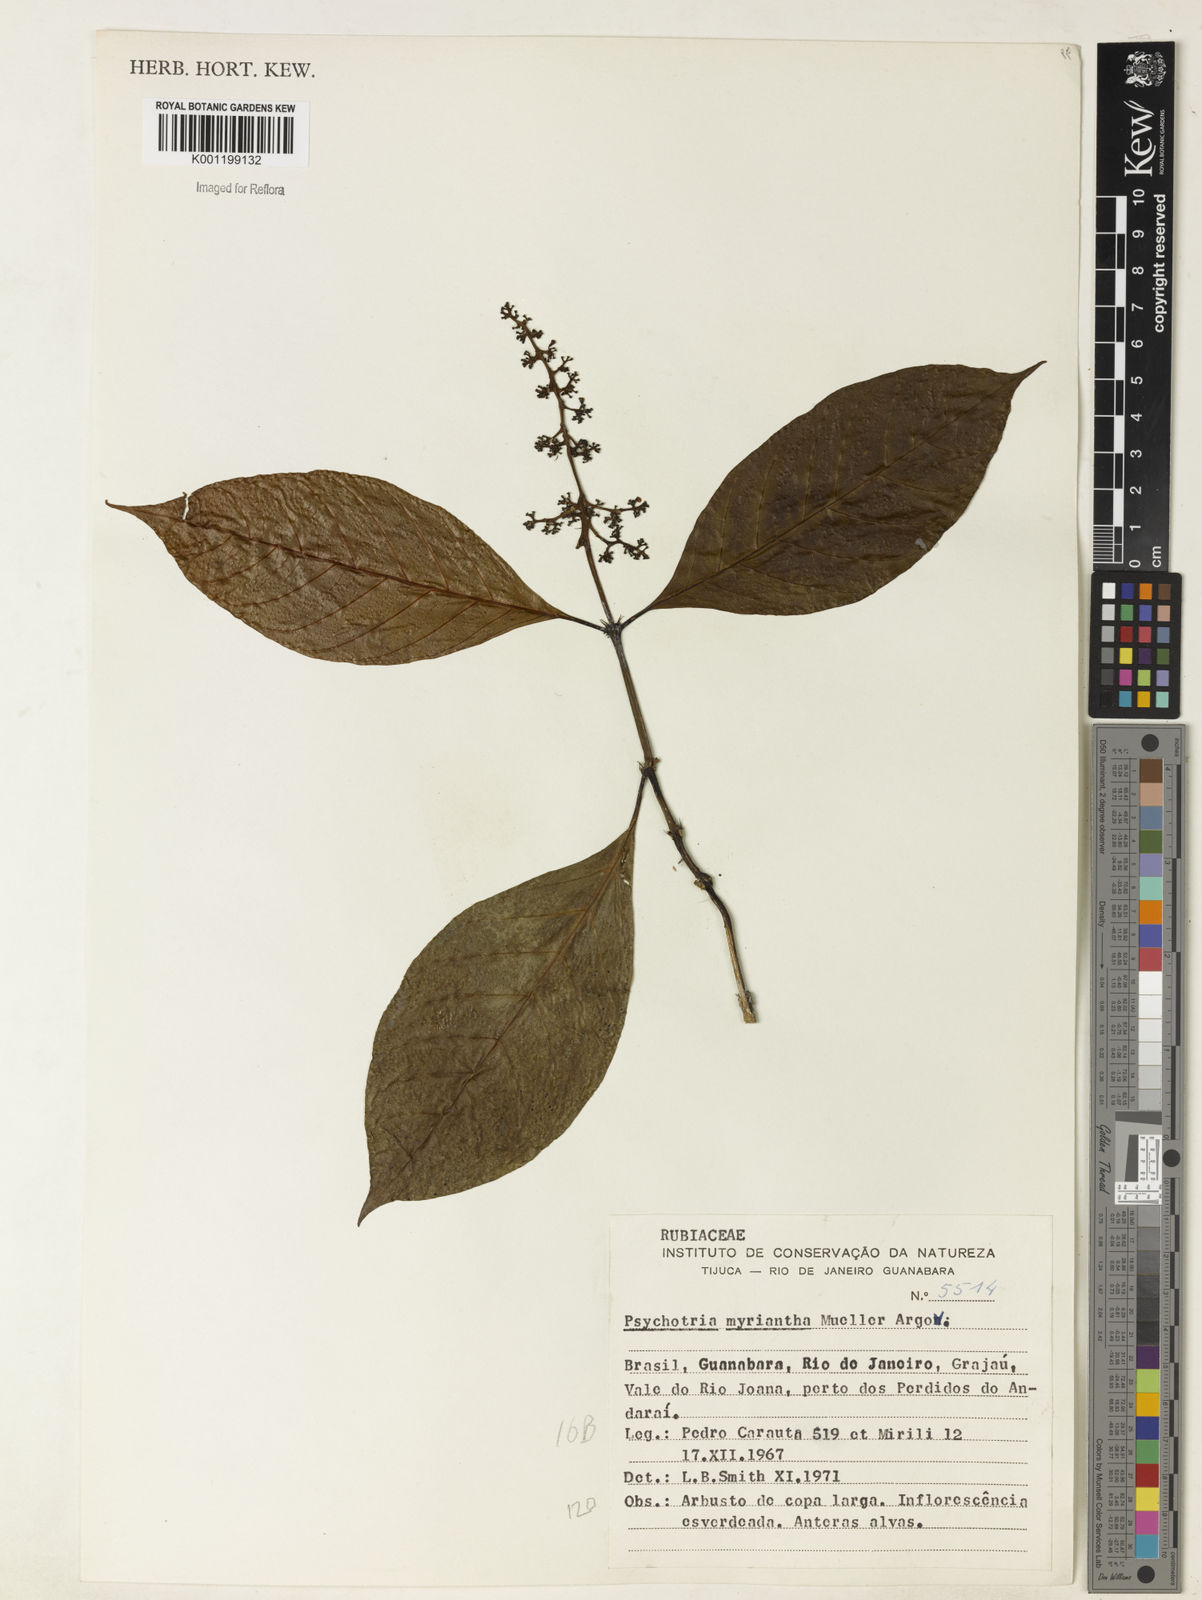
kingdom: Plantae
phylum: Tracheophyta
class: Magnoliopsida
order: Gentianales
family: Rubiaceae
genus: Psychotria
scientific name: Psychotria
